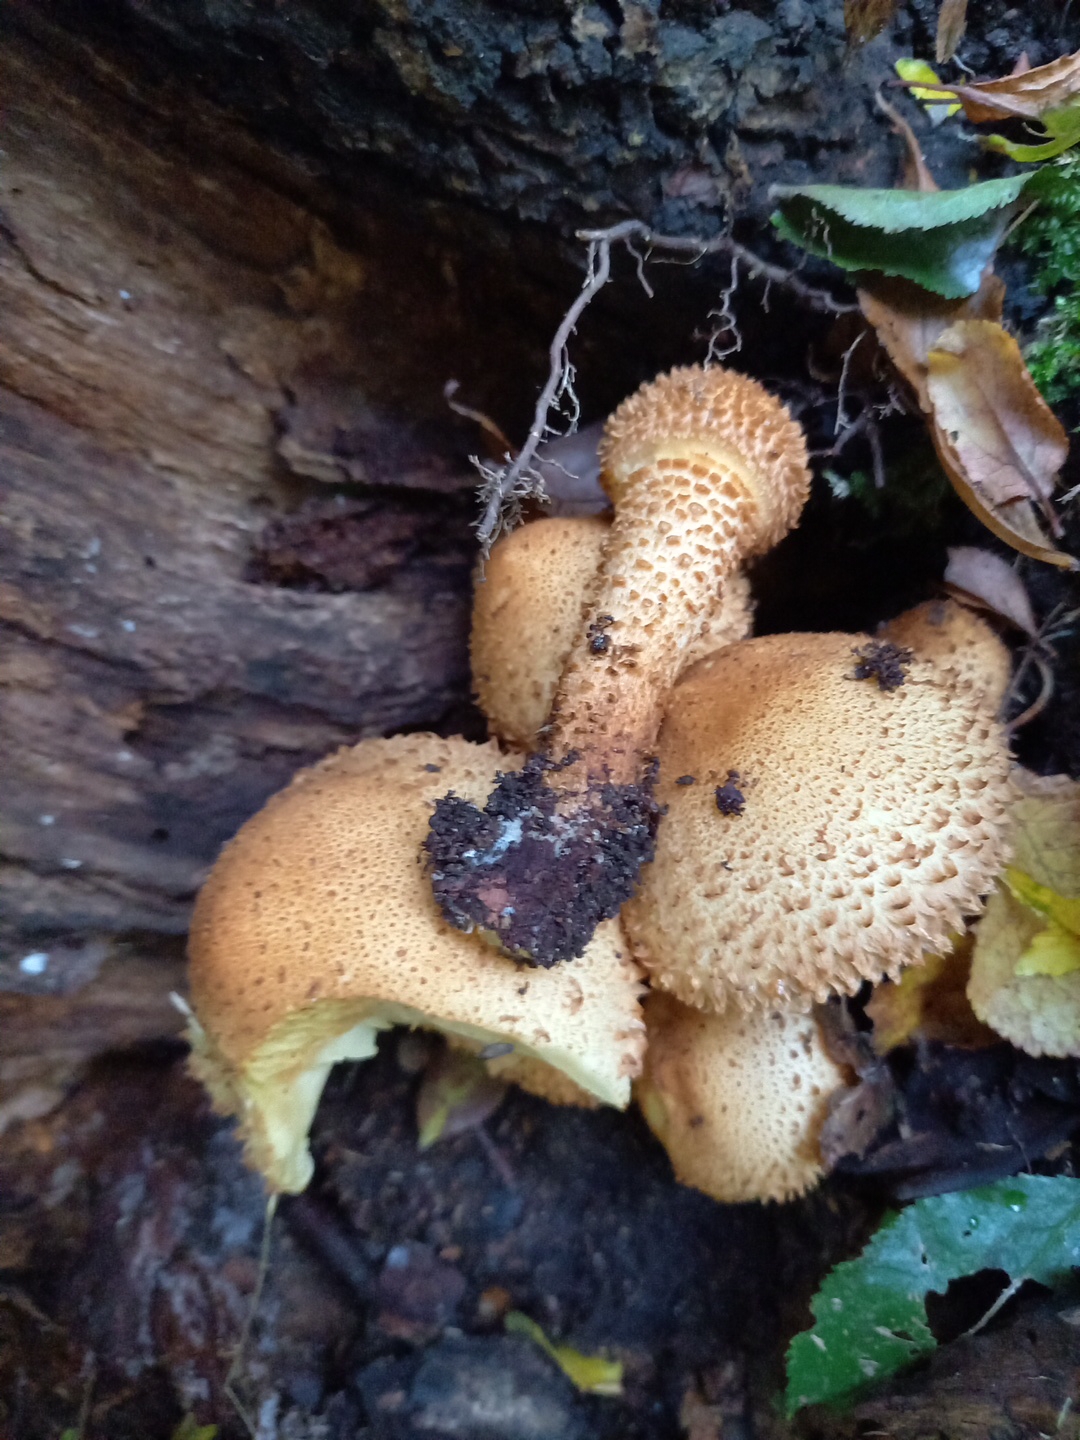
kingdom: Fungi
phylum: Basidiomycota
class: Agaricomycetes
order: Agaricales
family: Strophariaceae
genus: Pholiota
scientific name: Pholiota squarrosa
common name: krumskællet skælhat
